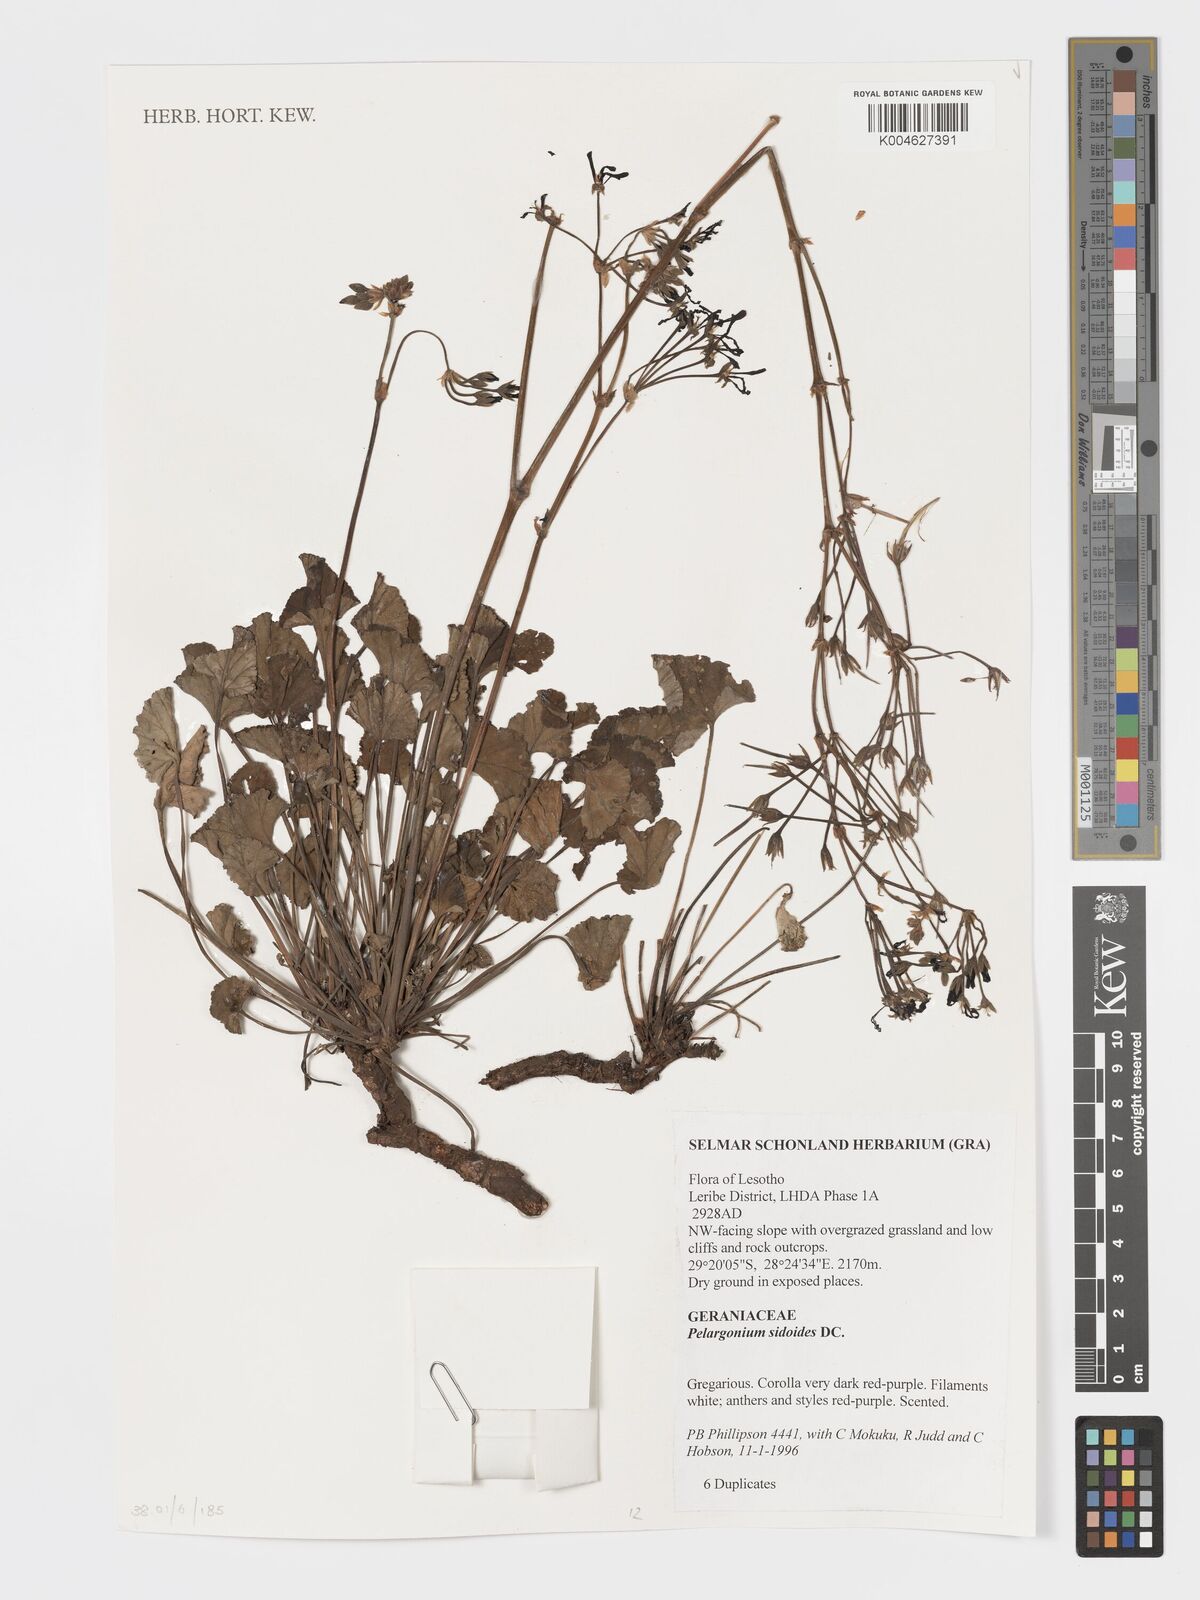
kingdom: Plantae
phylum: Tracheophyta
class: Magnoliopsida
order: Geraniales
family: Geraniaceae
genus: Pelargonium
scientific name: Pelargonium sidoides
